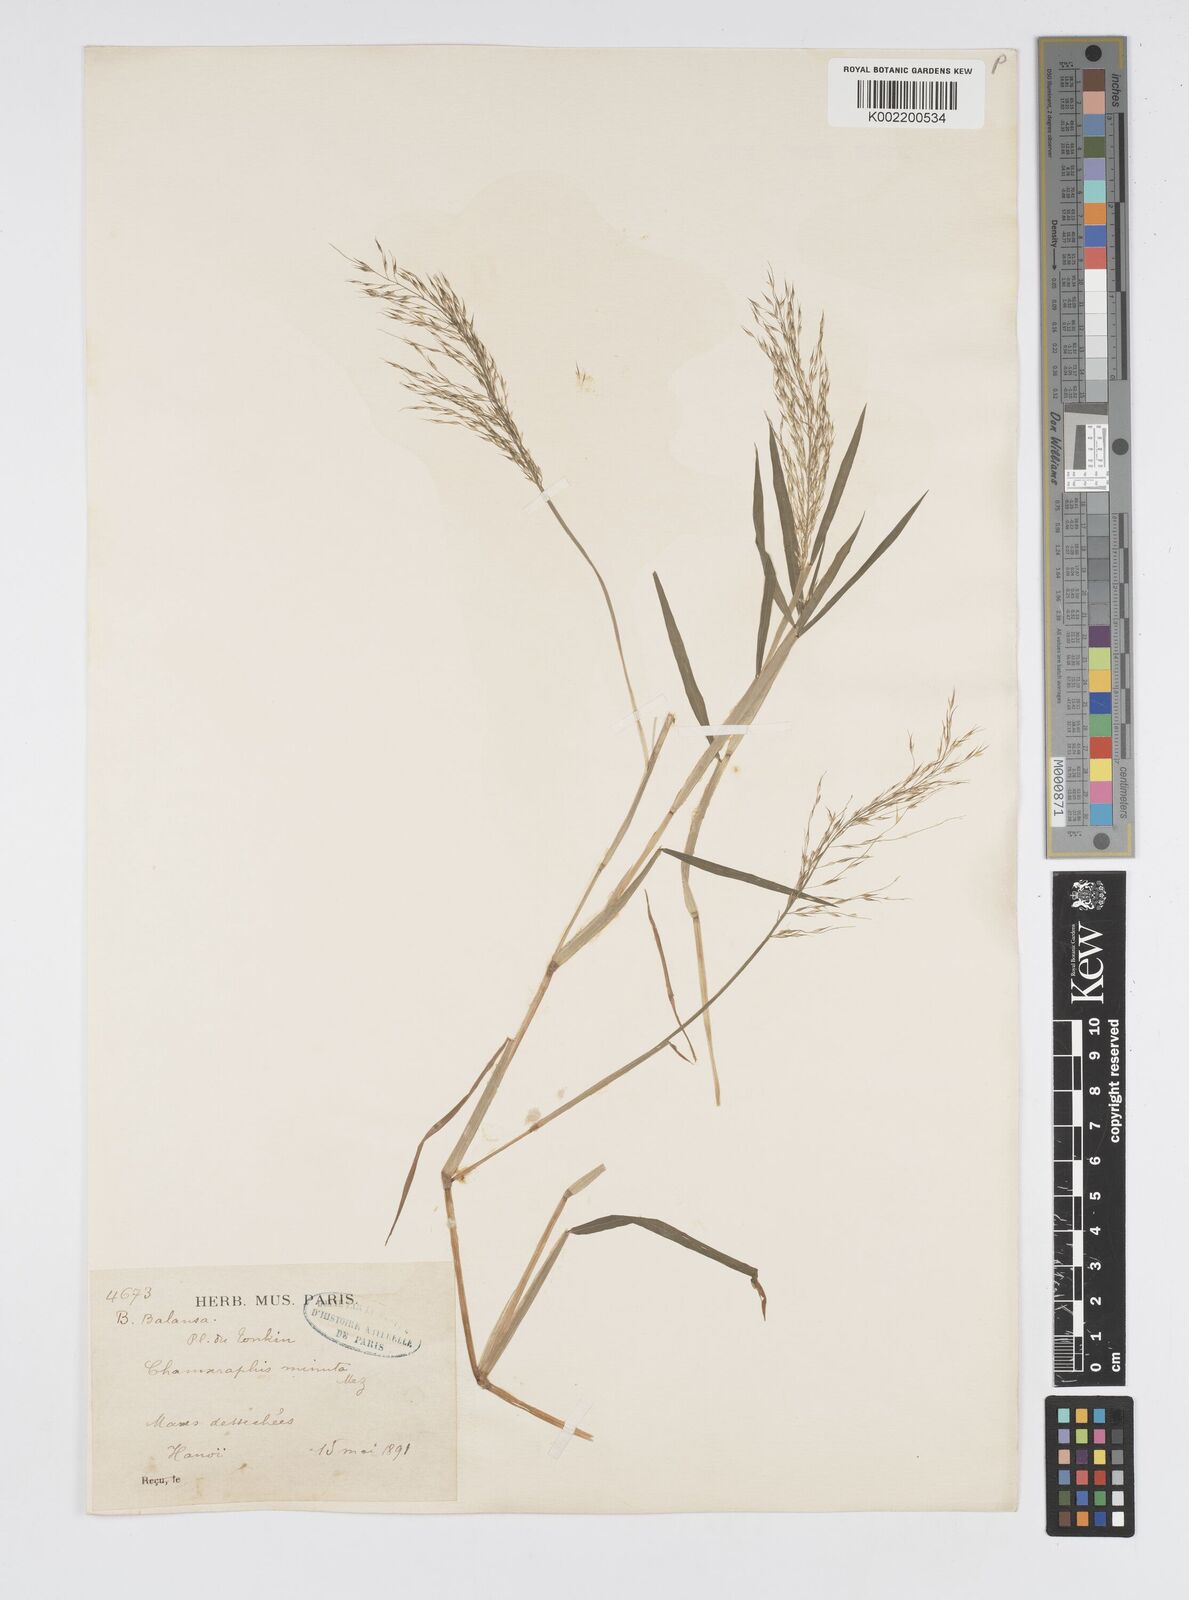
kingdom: Plantae
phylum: Tracheophyta
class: Liliopsida
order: Poales
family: Poaceae
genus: Pseudoraphis
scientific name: Pseudoraphis minuta
